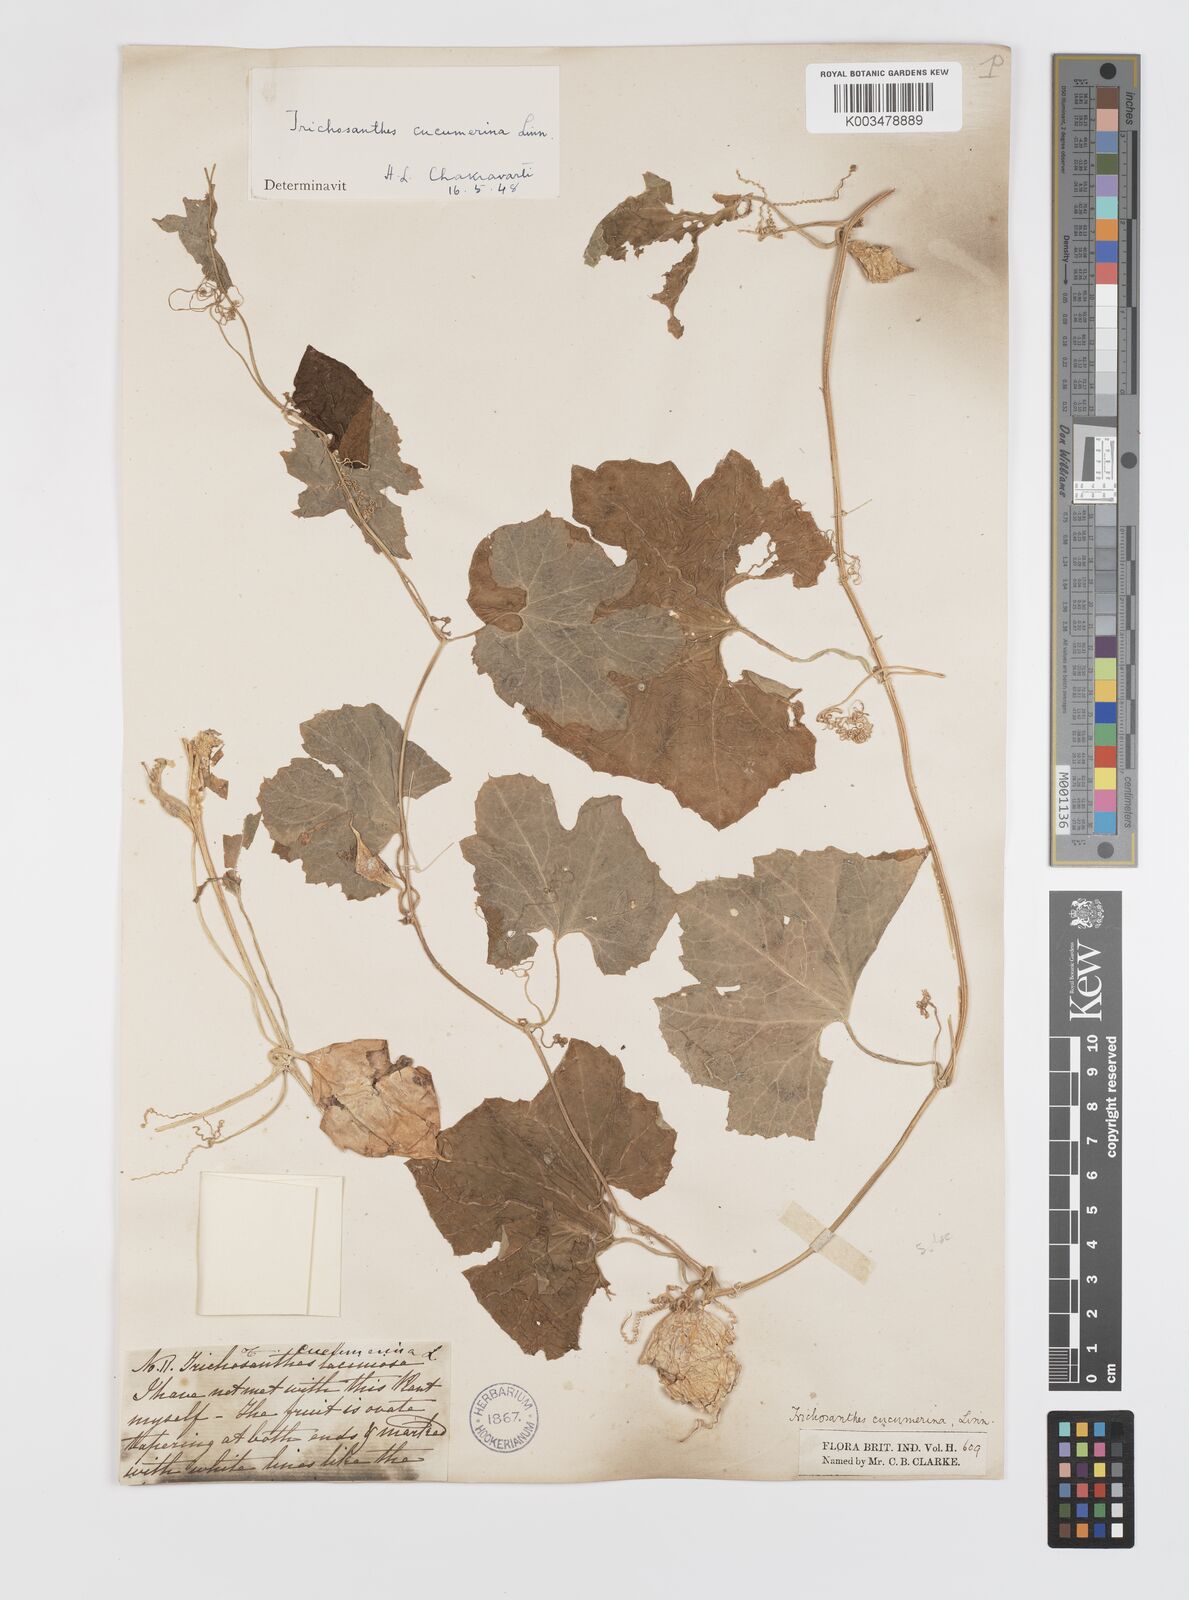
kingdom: Plantae
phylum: Tracheophyta
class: Magnoliopsida
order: Cucurbitales
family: Cucurbitaceae
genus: Trichosanthes
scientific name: Trichosanthes cucumerina
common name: Snakegourd
